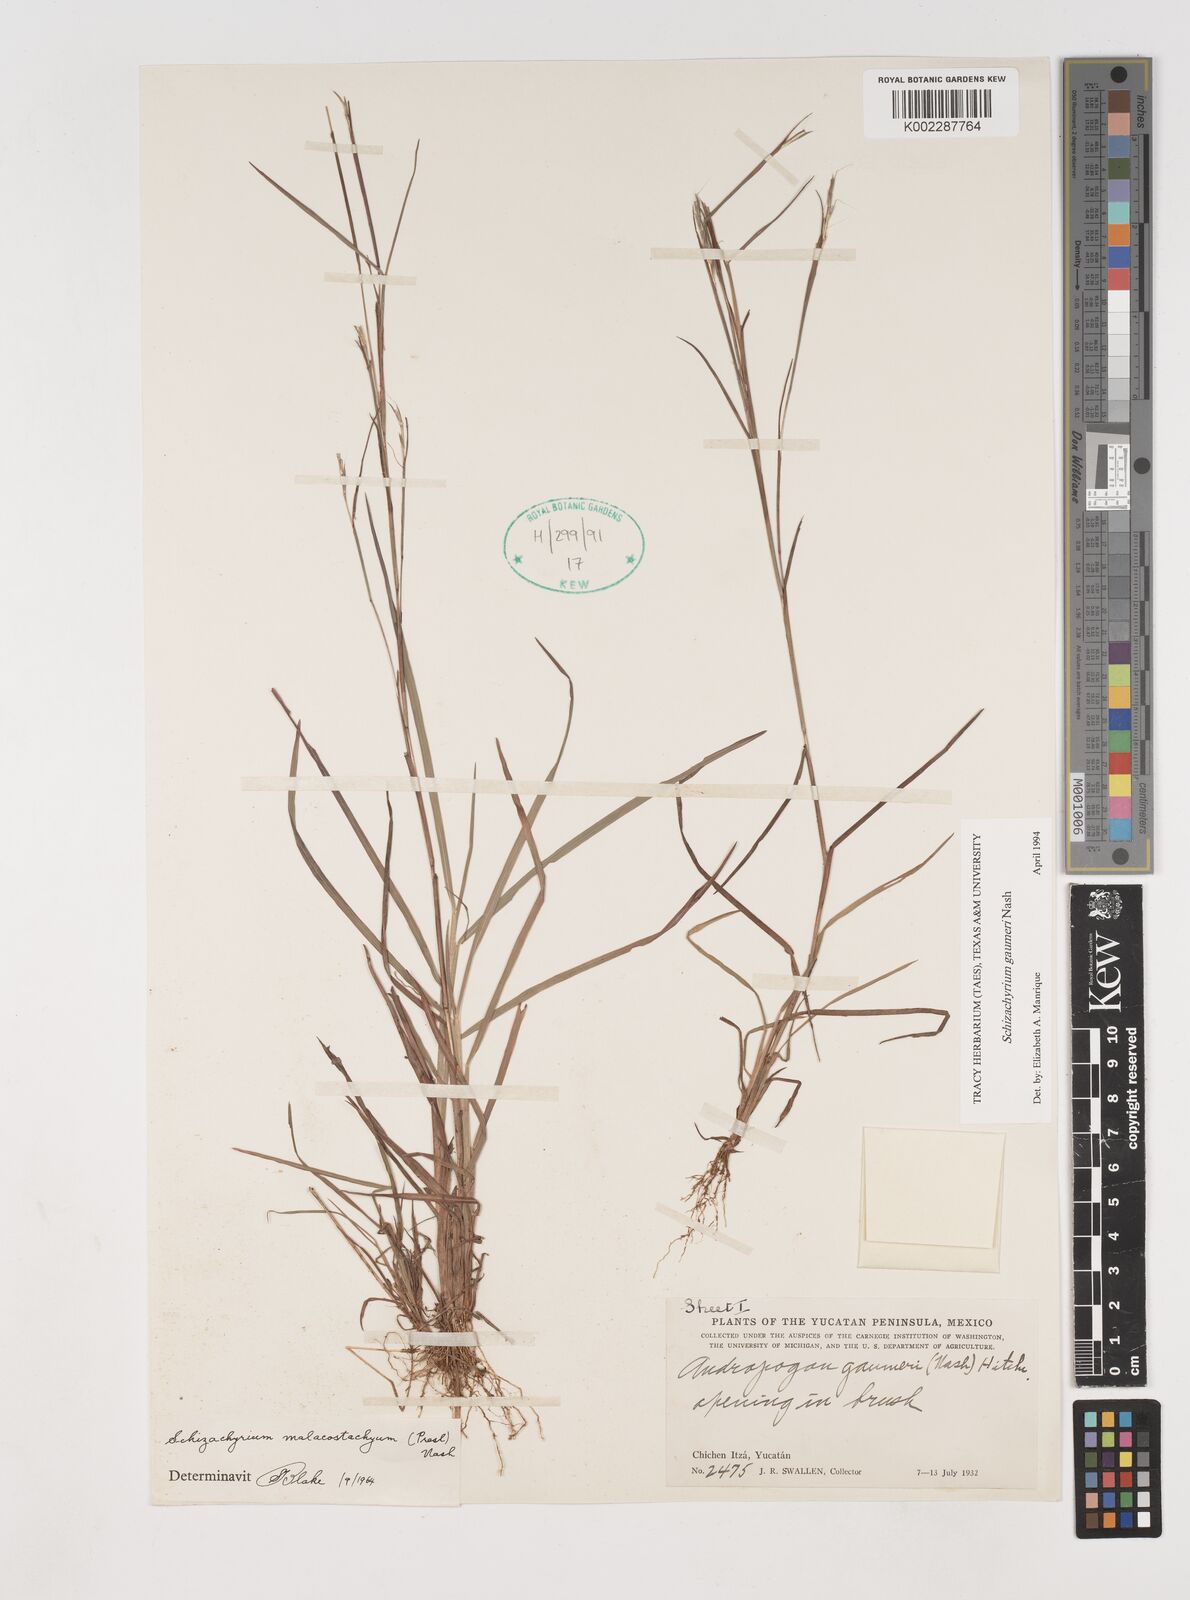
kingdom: Plantae
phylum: Tracheophyta
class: Liliopsida
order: Poales
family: Poaceae
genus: Schizachyrium
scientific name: Schizachyrium gaumeri
